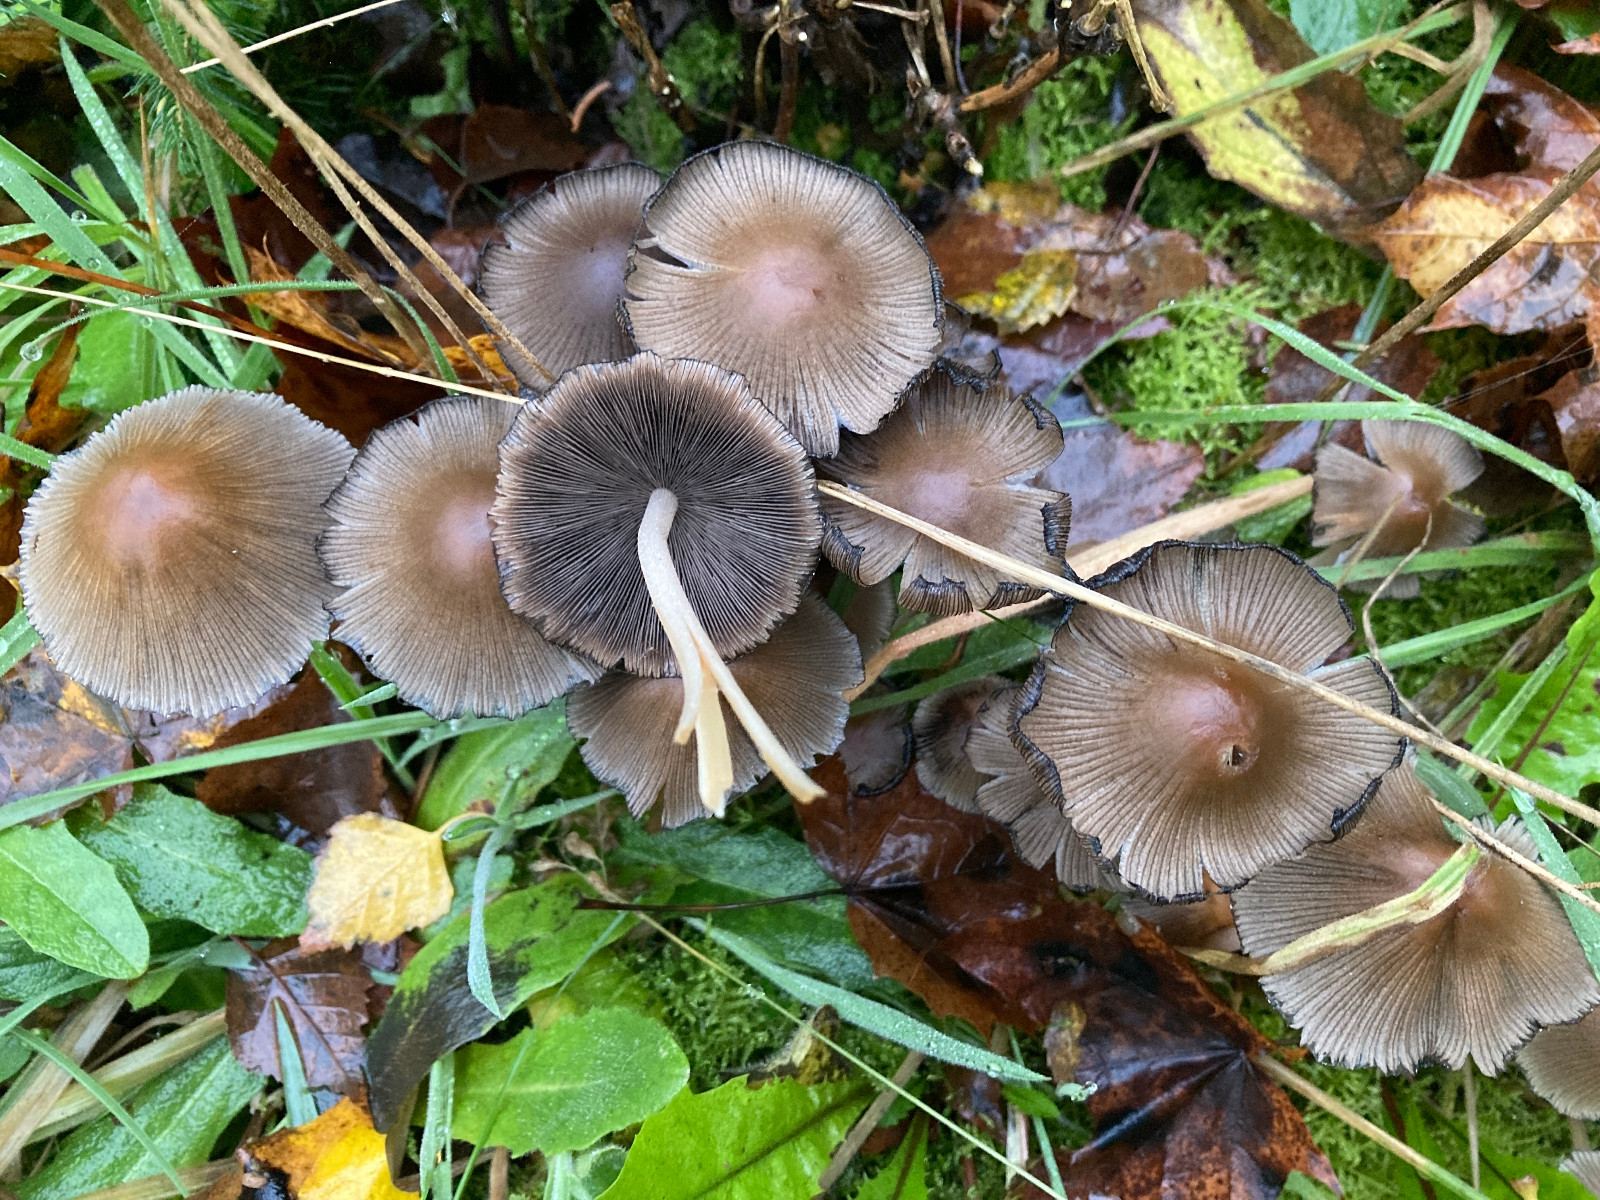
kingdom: Fungi
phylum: Basidiomycota
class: Agaricomycetes
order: Agaricales
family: Psathyrellaceae
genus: Coprinellus
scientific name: Coprinellus micaceus
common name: glimmer-blækhat
